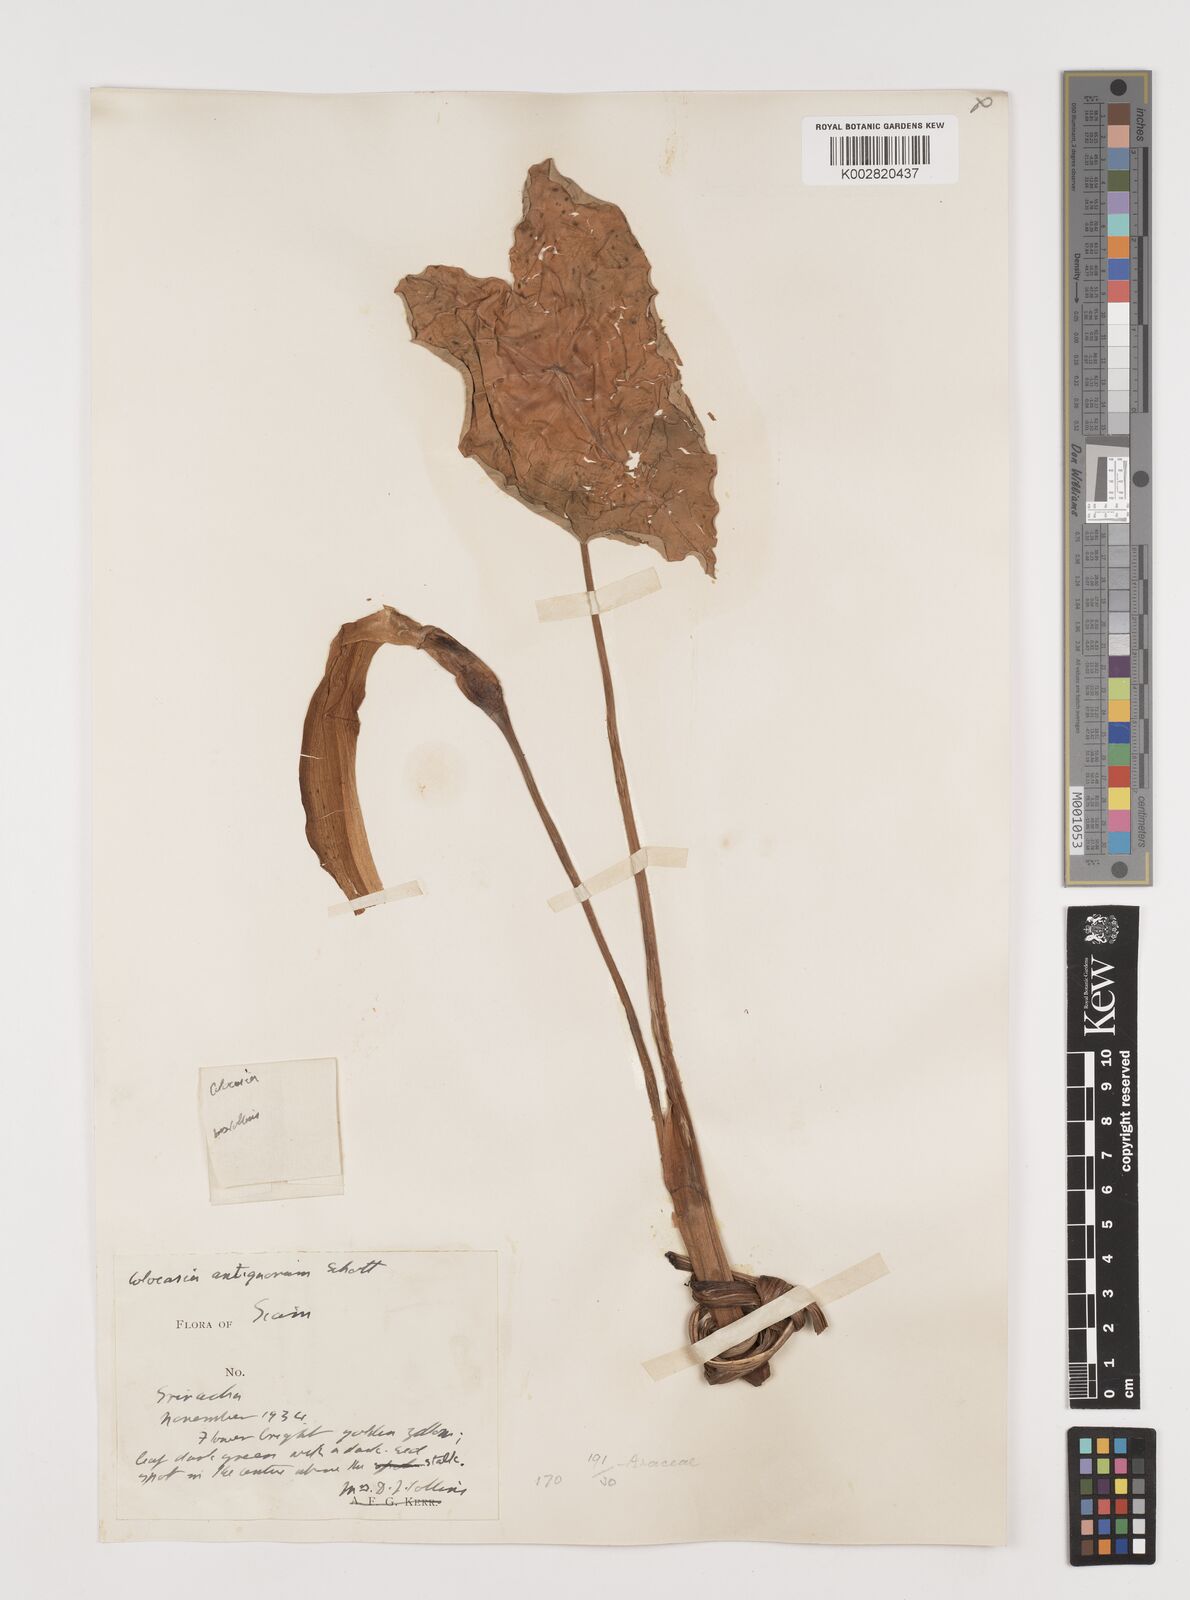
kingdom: Plantae
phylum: Tracheophyta
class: Liliopsida
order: Alismatales
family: Araceae
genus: Colocasia
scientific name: Colocasia esculenta
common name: Taro
